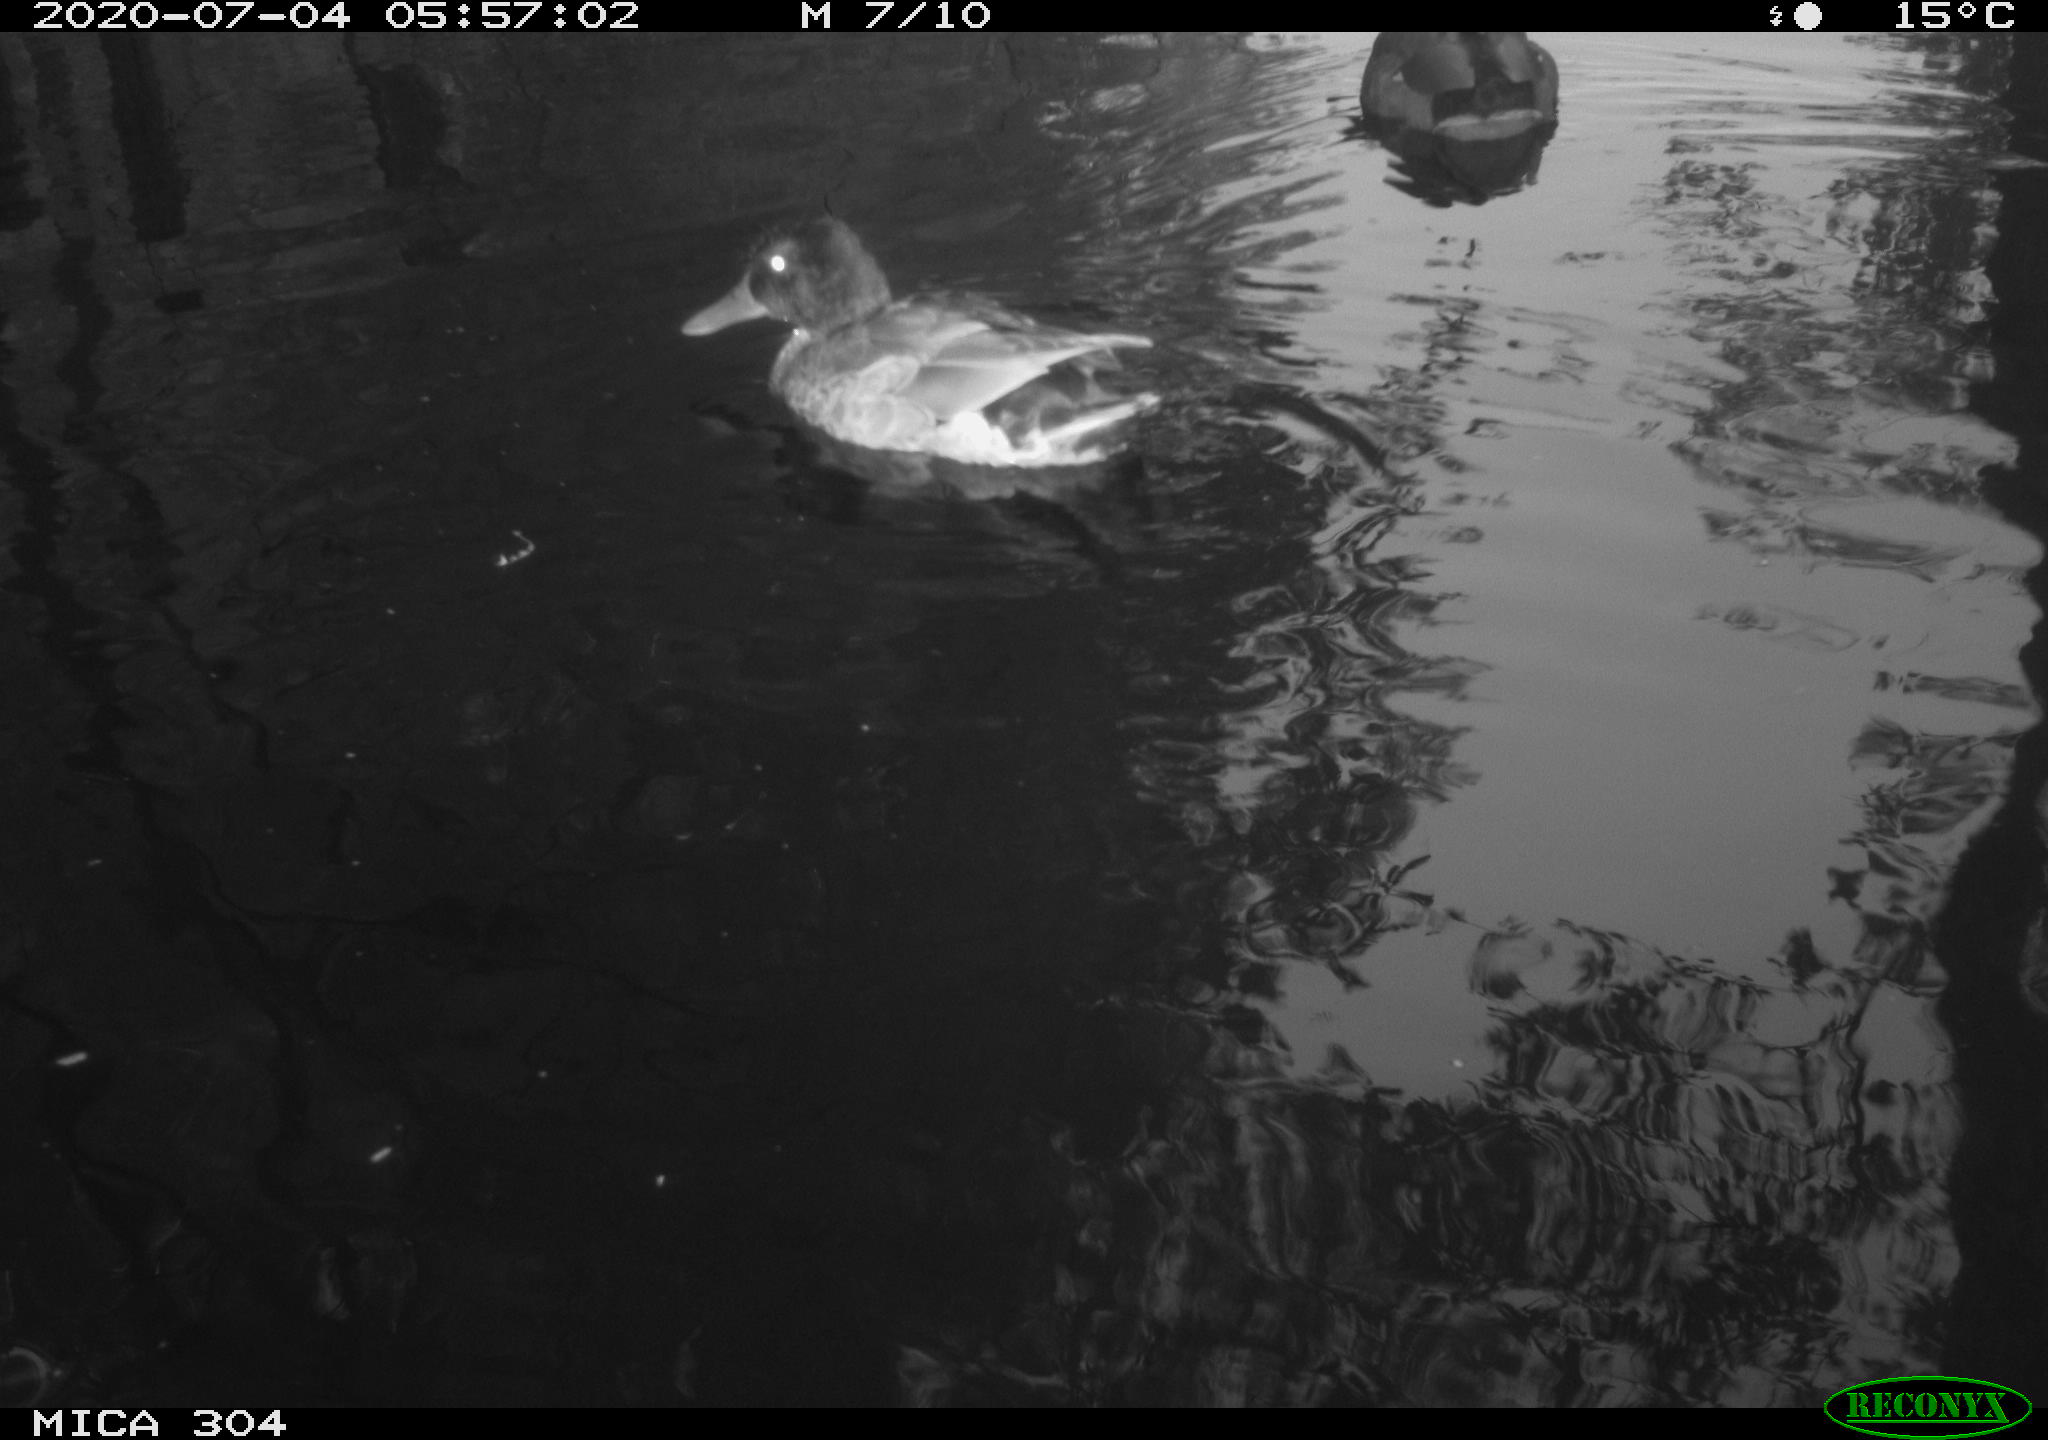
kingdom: Animalia
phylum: Chordata
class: Aves
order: Anseriformes
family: Anatidae
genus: Anas
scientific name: Anas platyrhynchos
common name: Mallard
